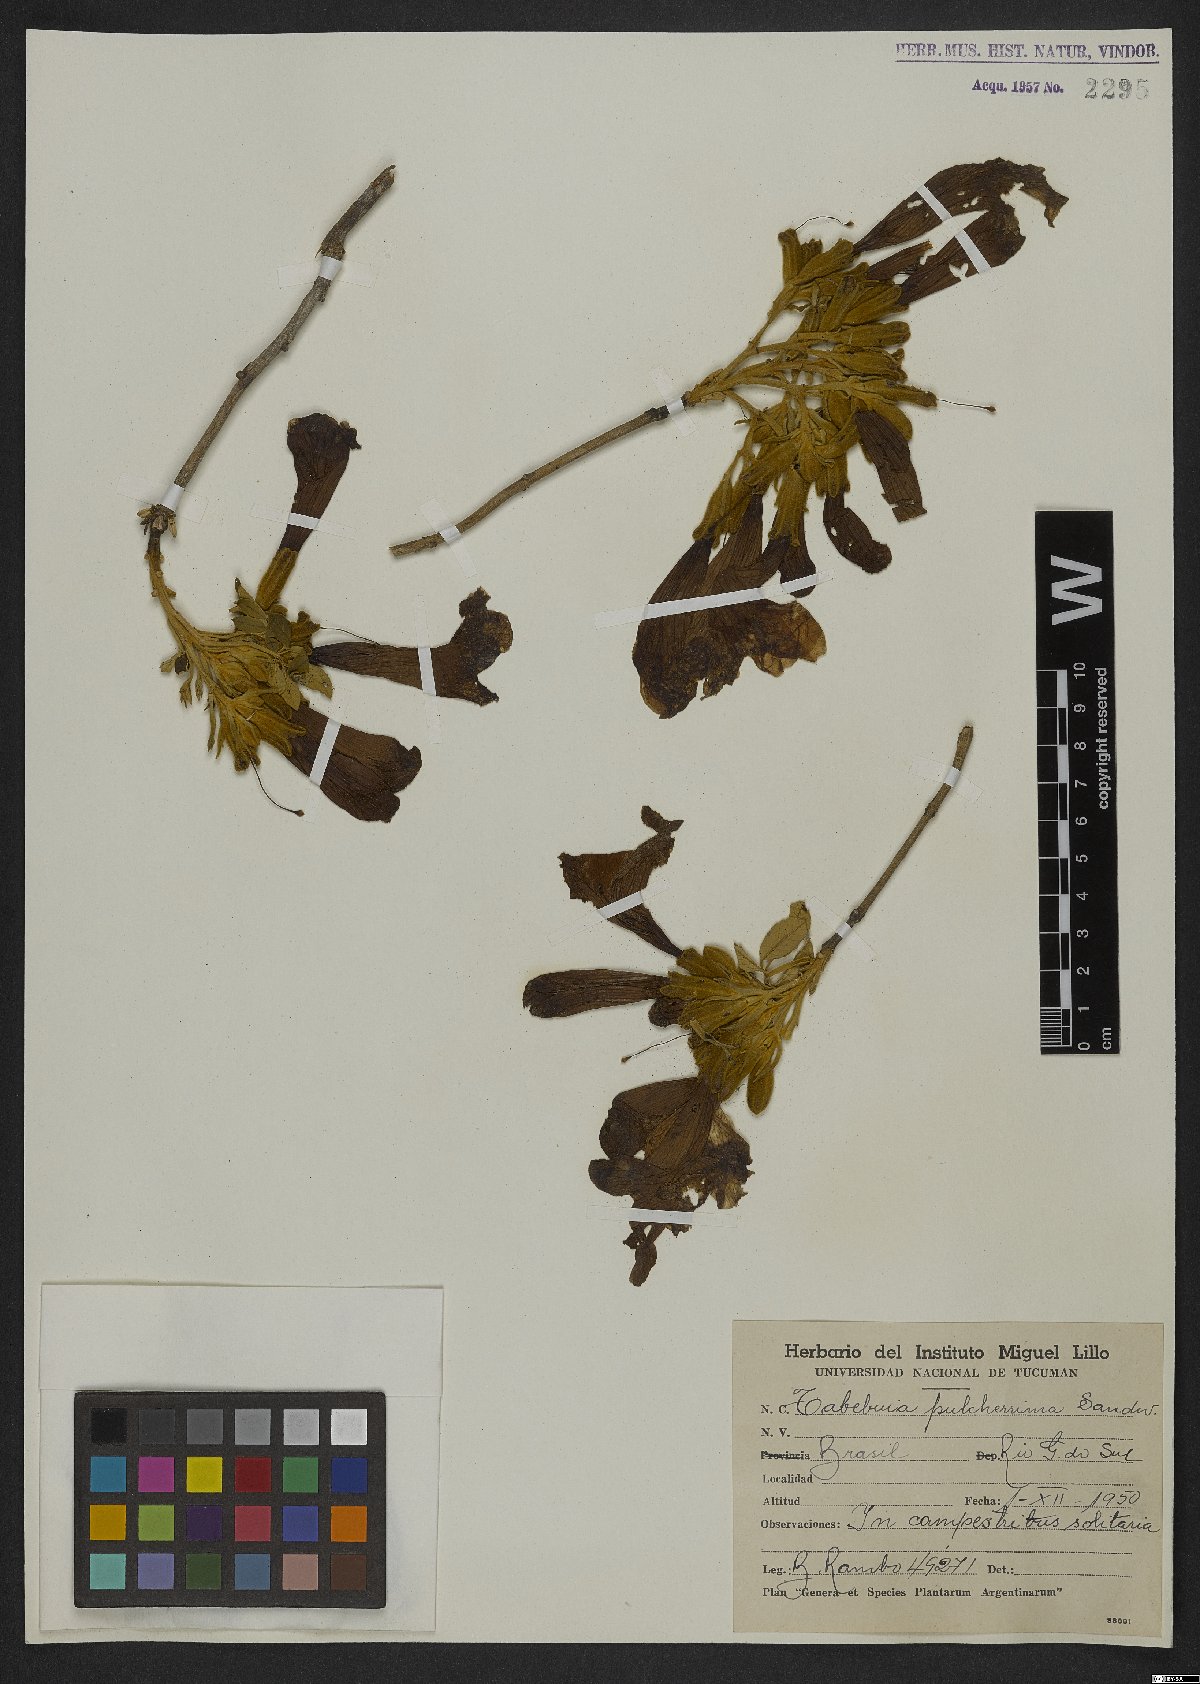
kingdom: Plantae
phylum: Tracheophyta
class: Magnoliopsida
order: Lamiales
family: Bignoniaceae
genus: Handroanthus
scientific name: Handroanthus pulcherrimus
